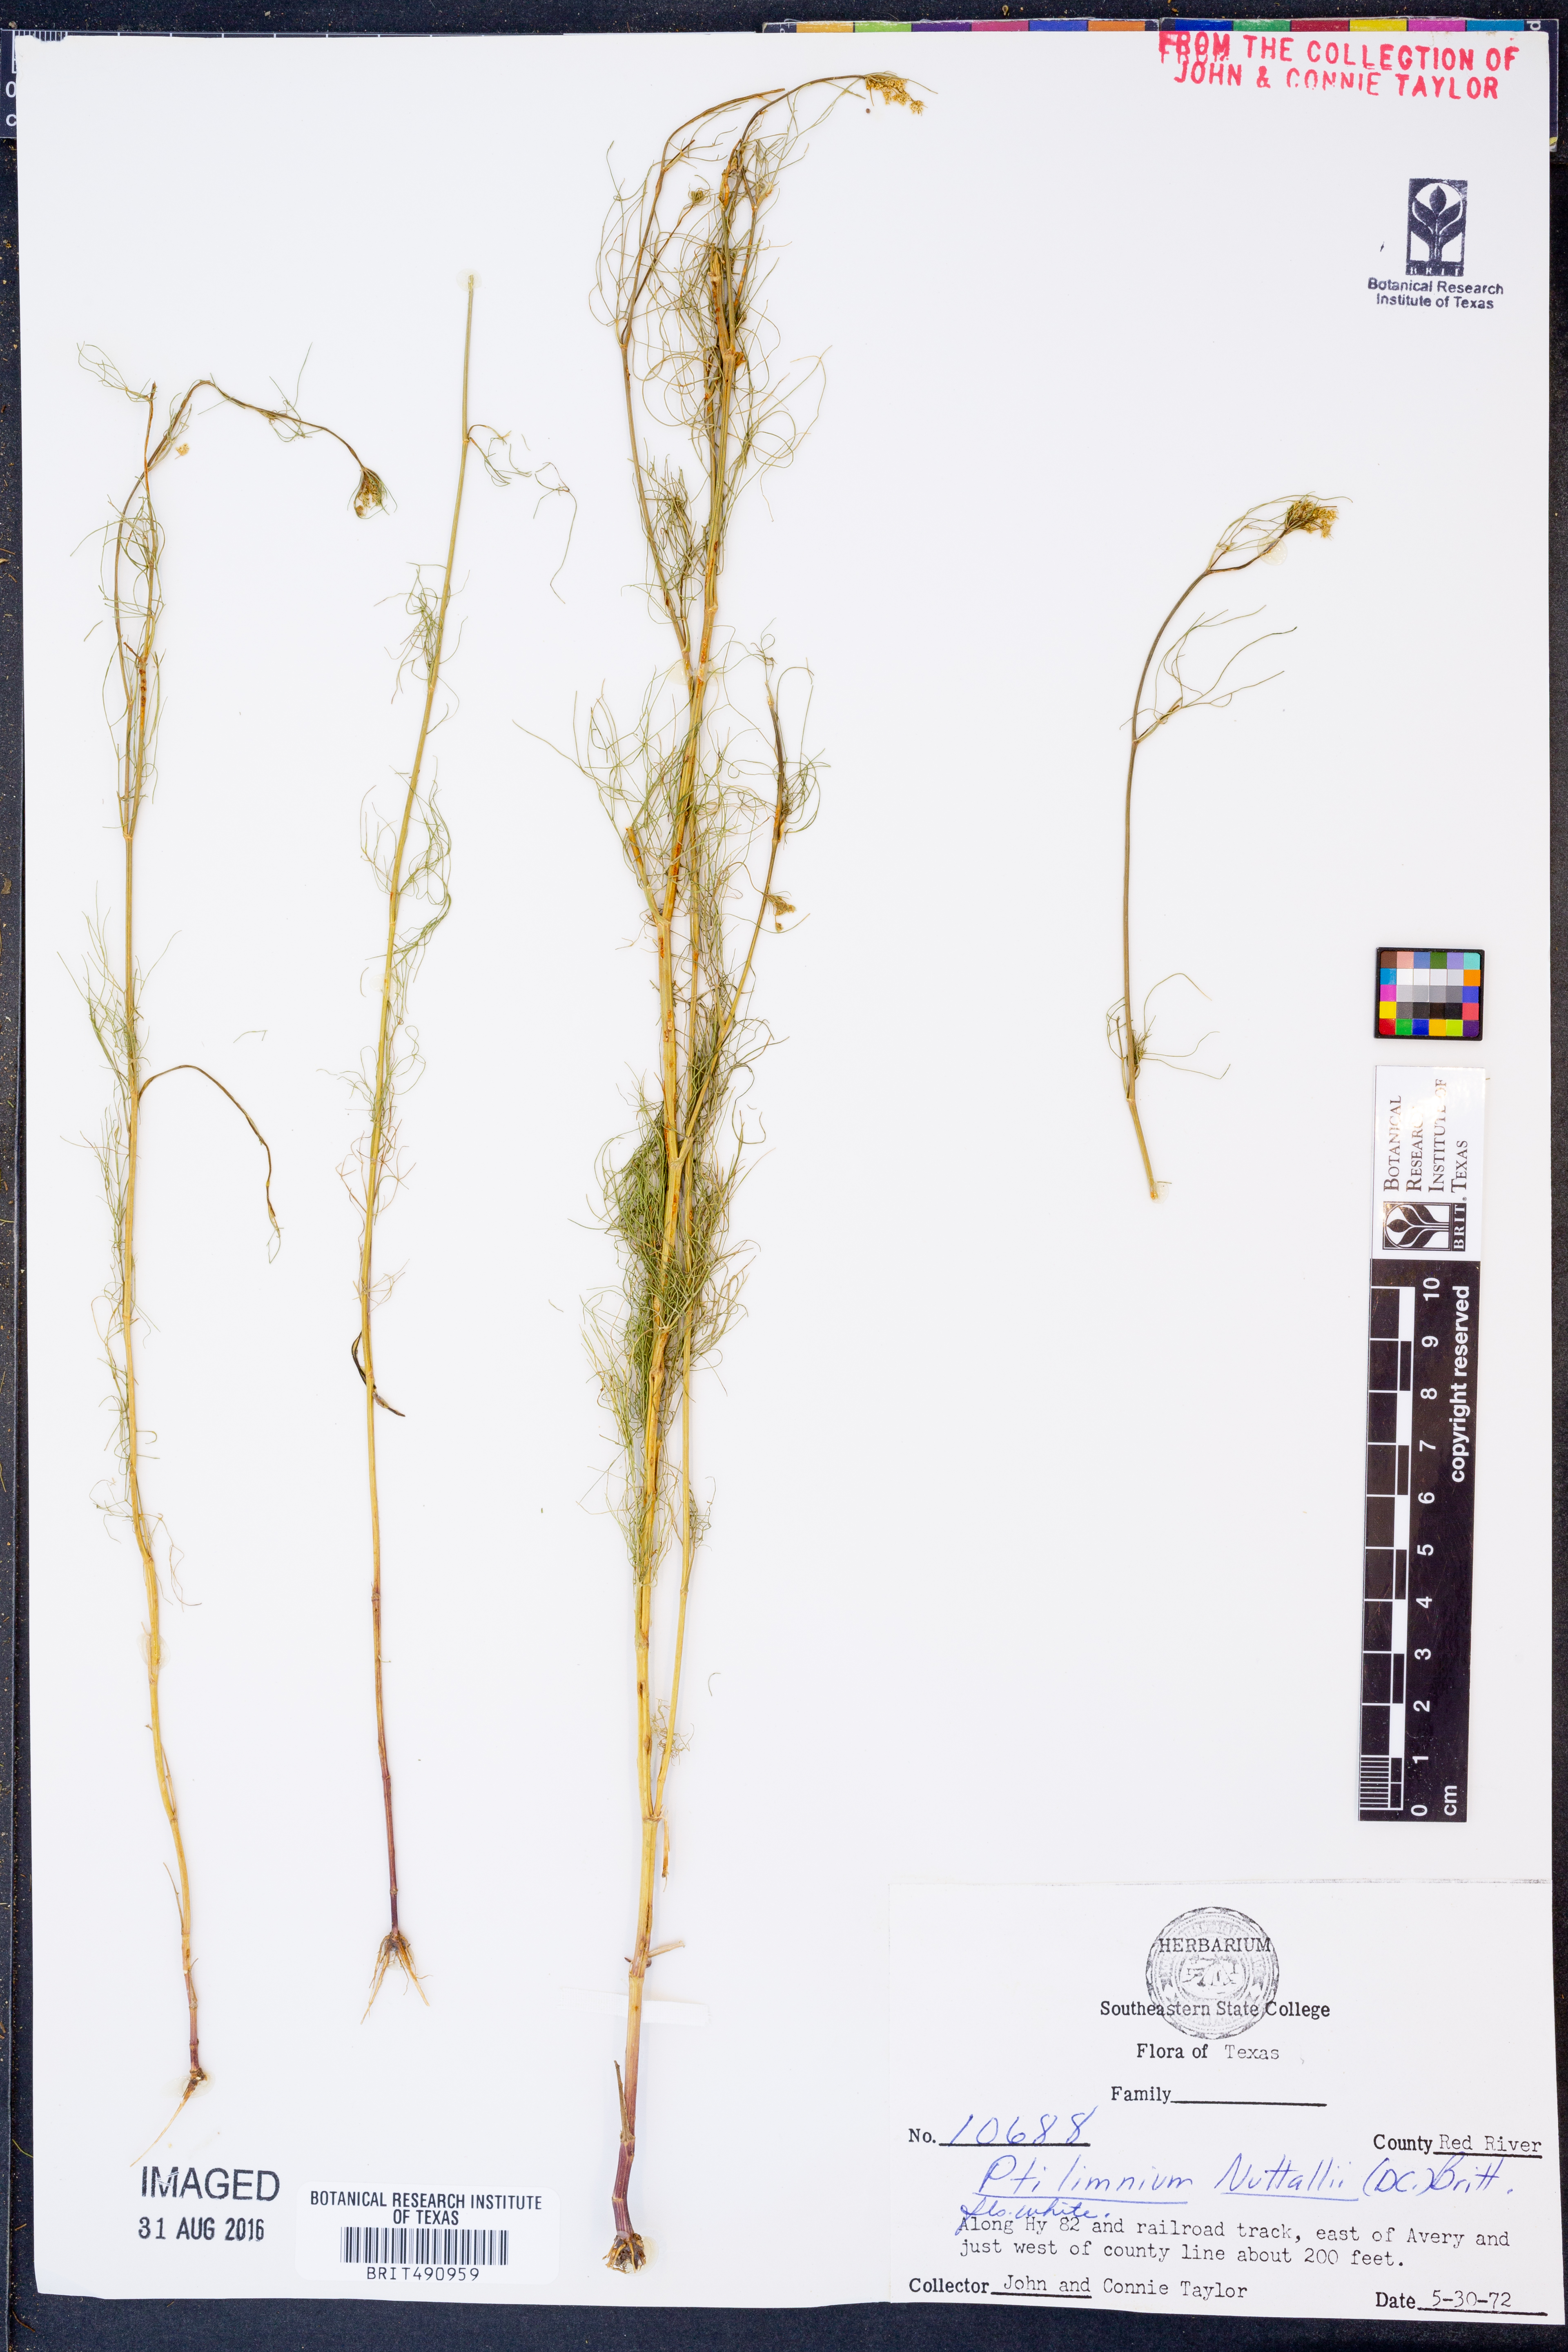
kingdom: Plantae
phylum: Tracheophyta
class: Magnoliopsida
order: Apiales
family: Apiaceae
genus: Ptilimnium
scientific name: Ptilimnium nuttallii
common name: Ozark bishop's-weed
